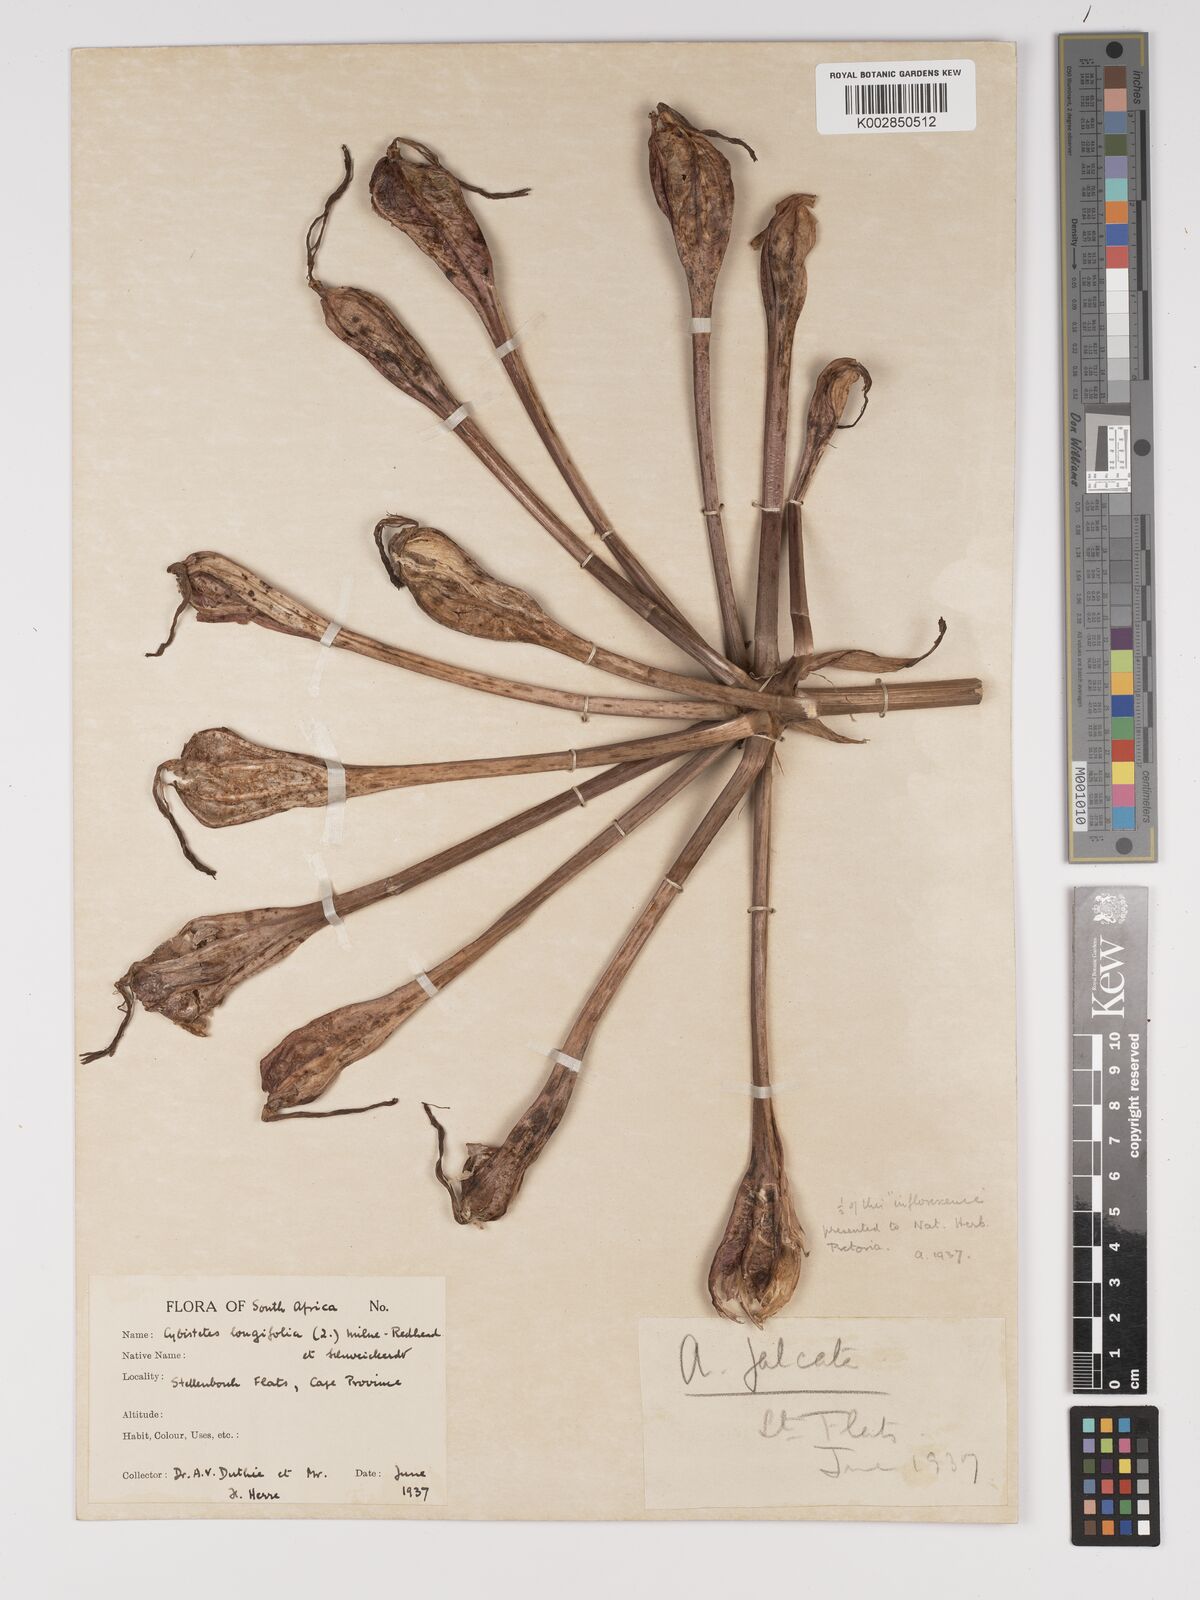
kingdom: Plantae
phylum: Tracheophyta
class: Liliopsida
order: Asparagales
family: Amaryllidaceae
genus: Ammocharis
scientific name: Ammocharis longifolia
